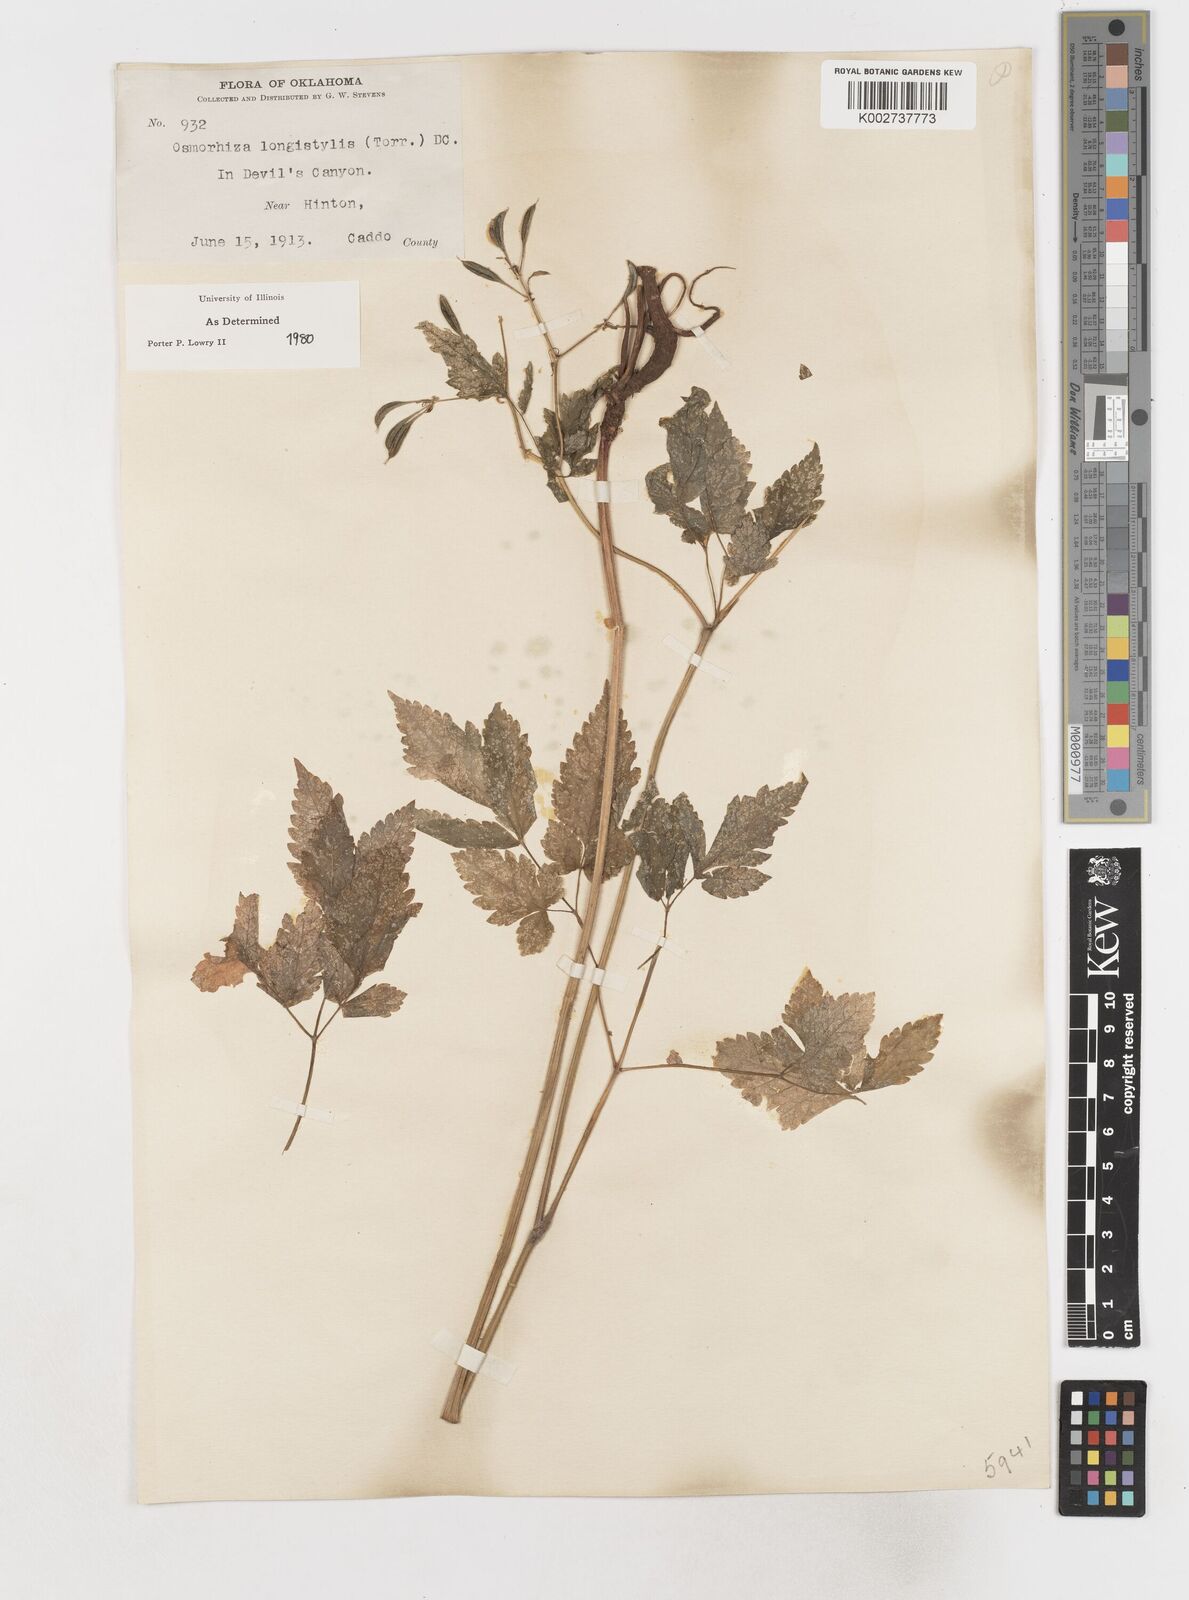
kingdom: Plantae
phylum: Tracheophyta
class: Magnoliopsida
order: Apiales
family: Apiaceae
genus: Osmorhiza
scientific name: Osmorhiza longistylis
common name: Smooth sweet cicely
